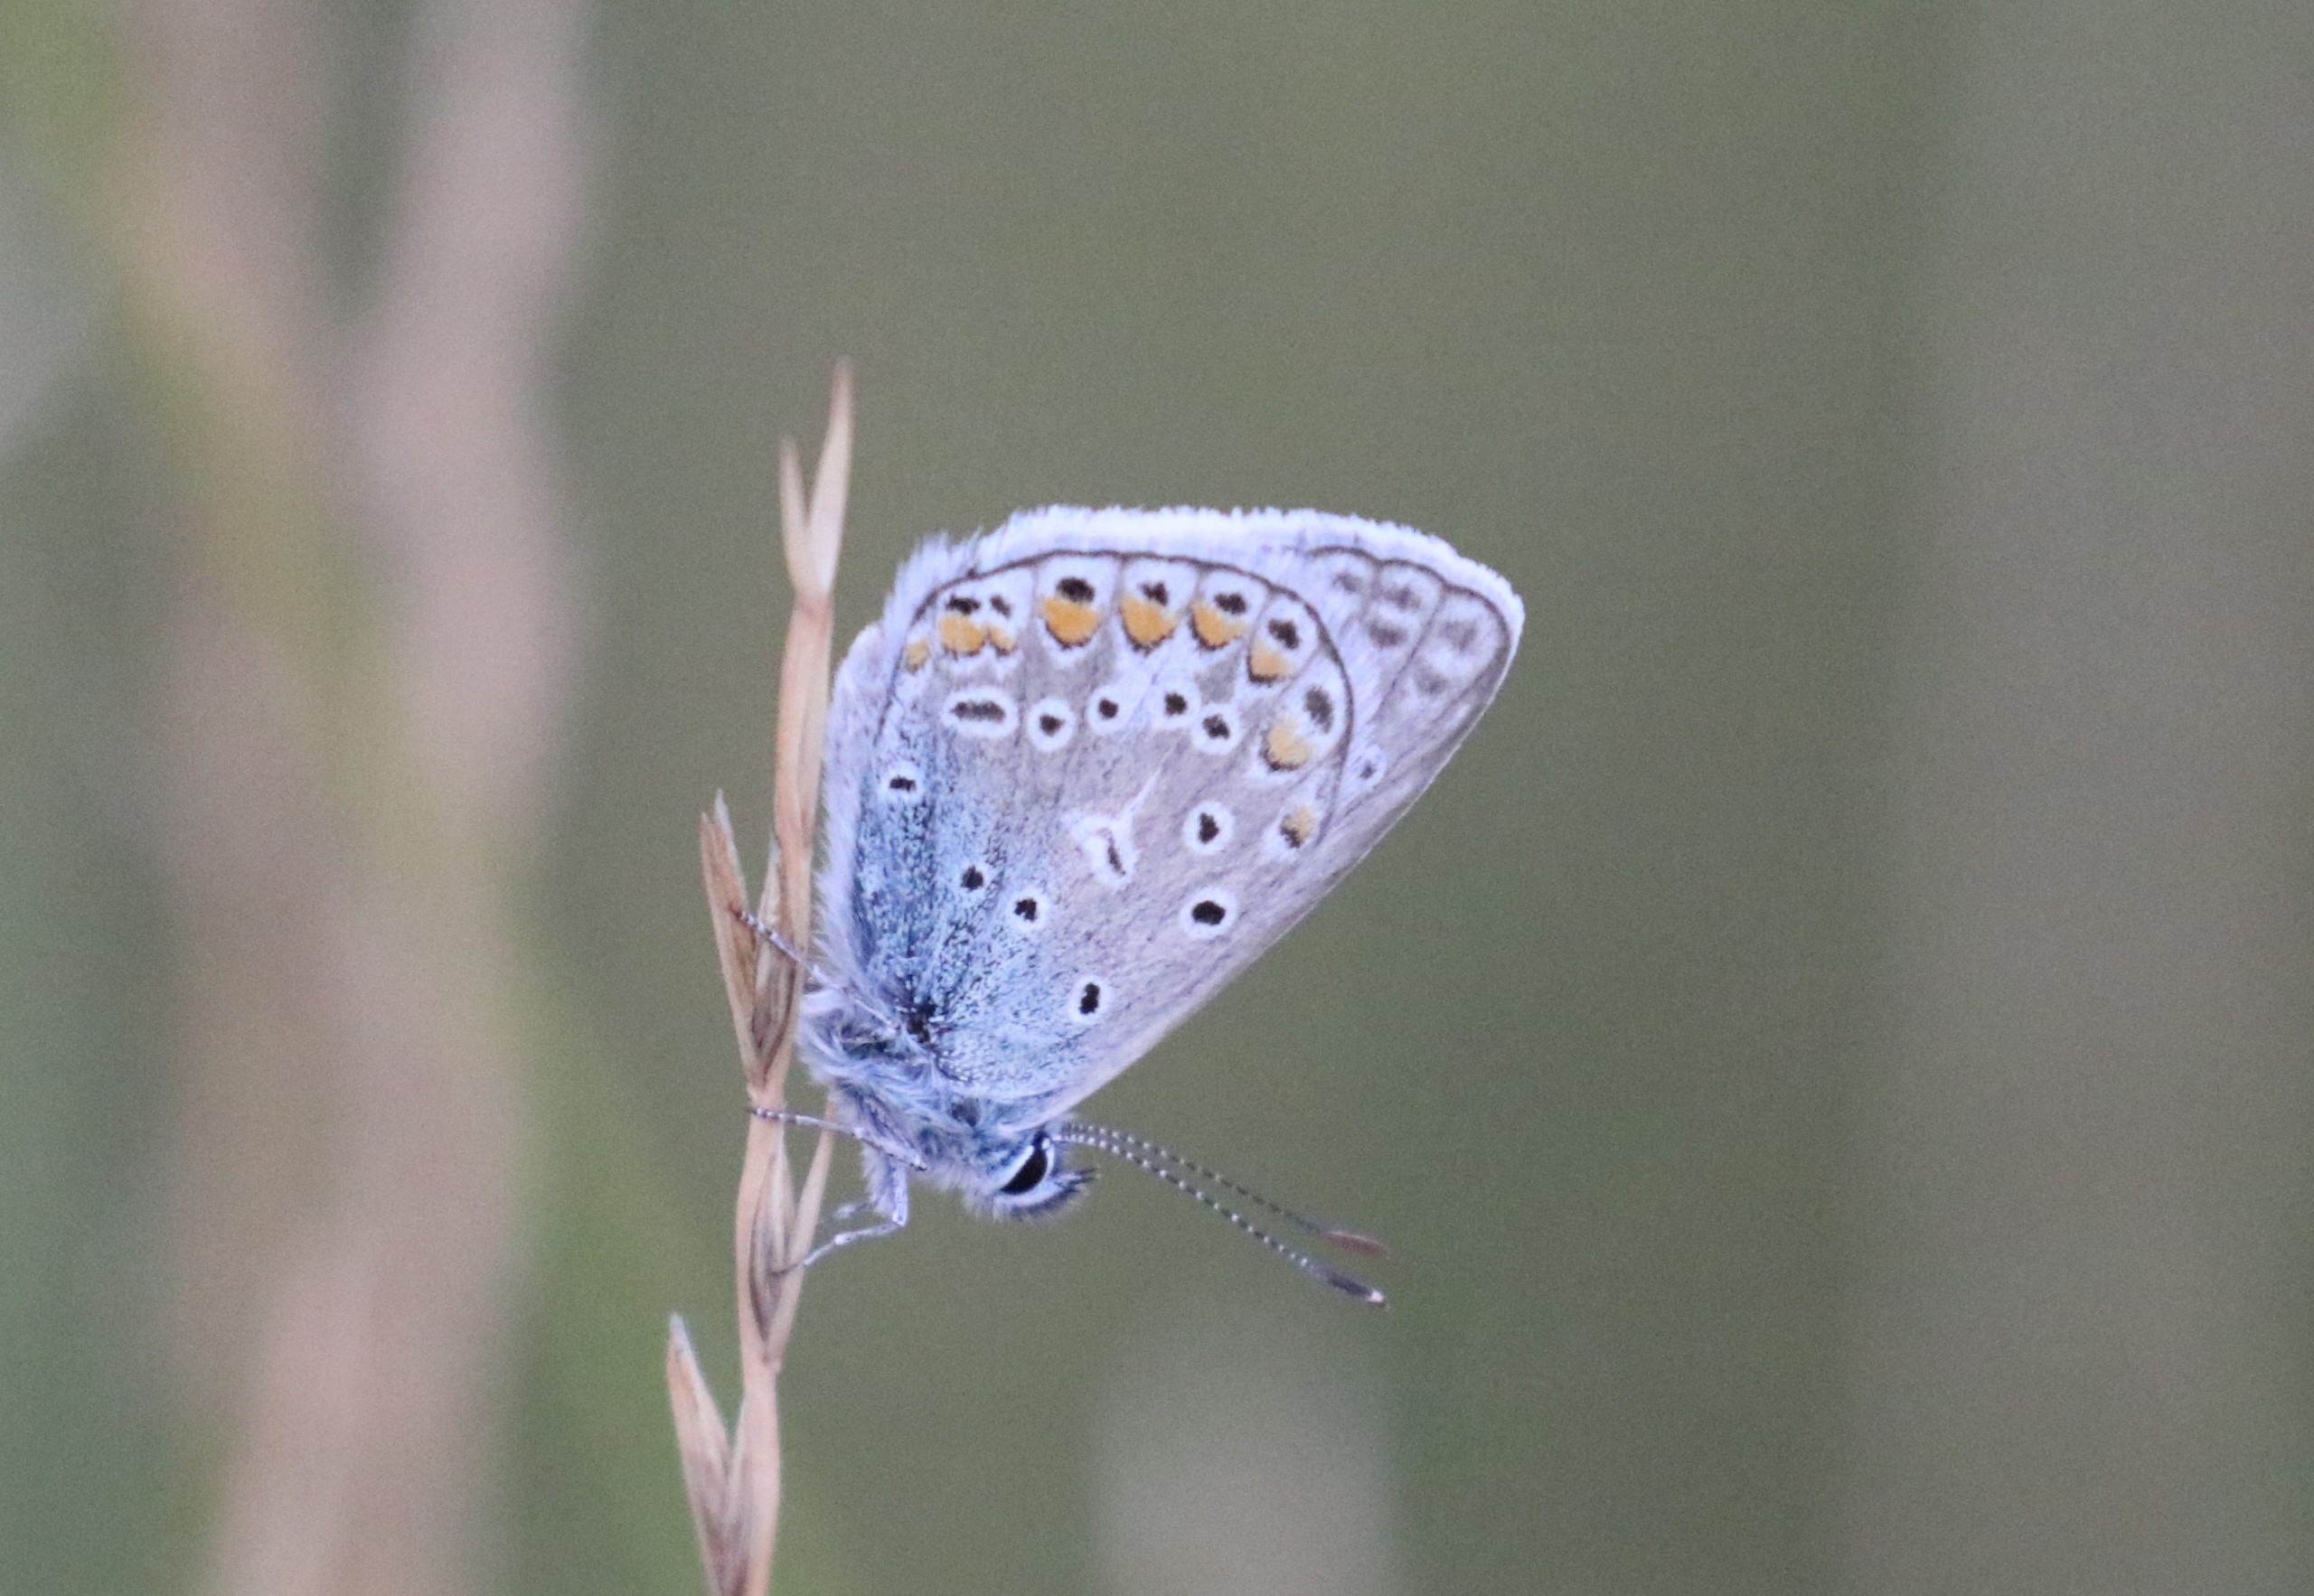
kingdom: Animalia
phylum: Arthropoda
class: Insecta
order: Lepidoptera
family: Lycaenidae
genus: Polyommatus
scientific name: Polyommatus icarus
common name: Almindelig blåfugl
